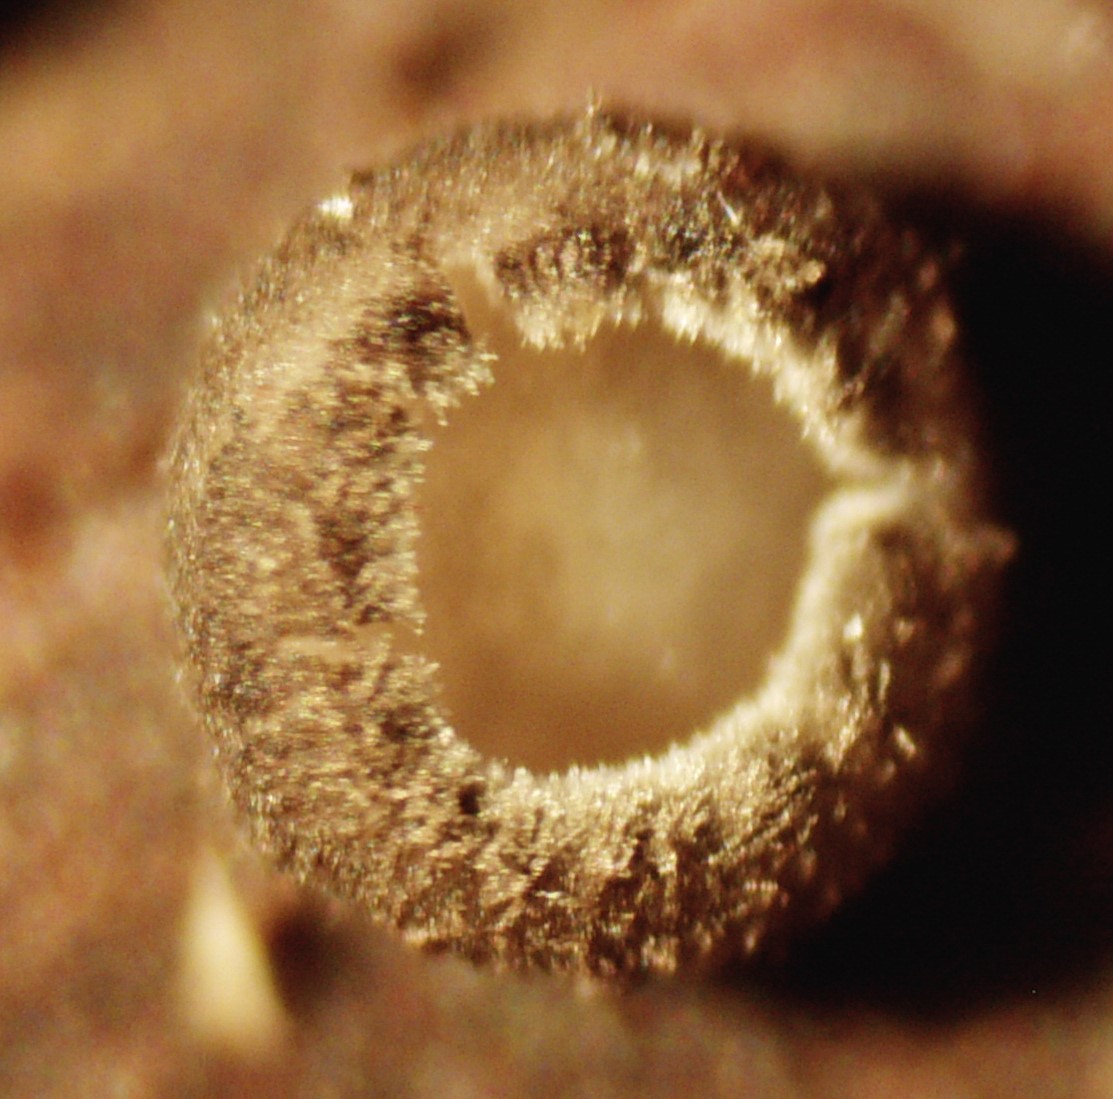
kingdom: Fungi
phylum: Ascomycota
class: Leotiomycetes
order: Helotiales
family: Ploettnerulaceae
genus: Pyrenopeziza
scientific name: Pyrenopeziza rubi
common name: hindbær-kerneskive
